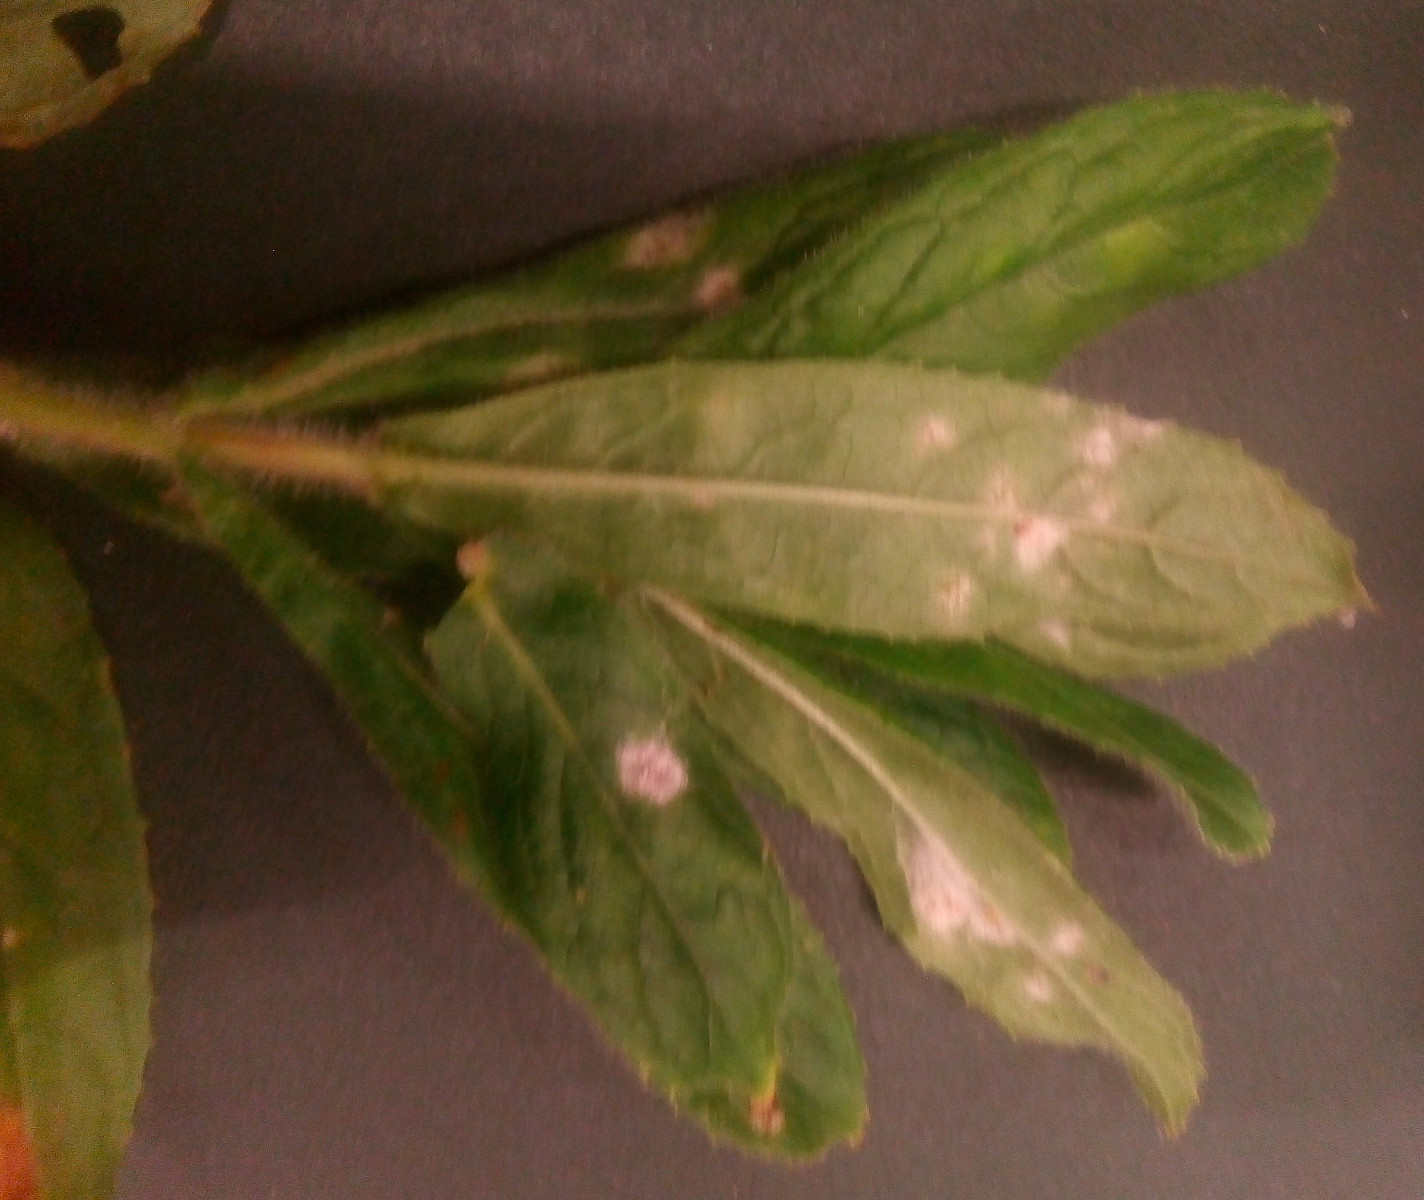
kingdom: Fungi
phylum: Ascomycota
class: Leotiomycetes
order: Helotiales
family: Erysiphaceae
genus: Podosphaera
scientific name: Podosphaera epilobii
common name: dueurt-meldug
